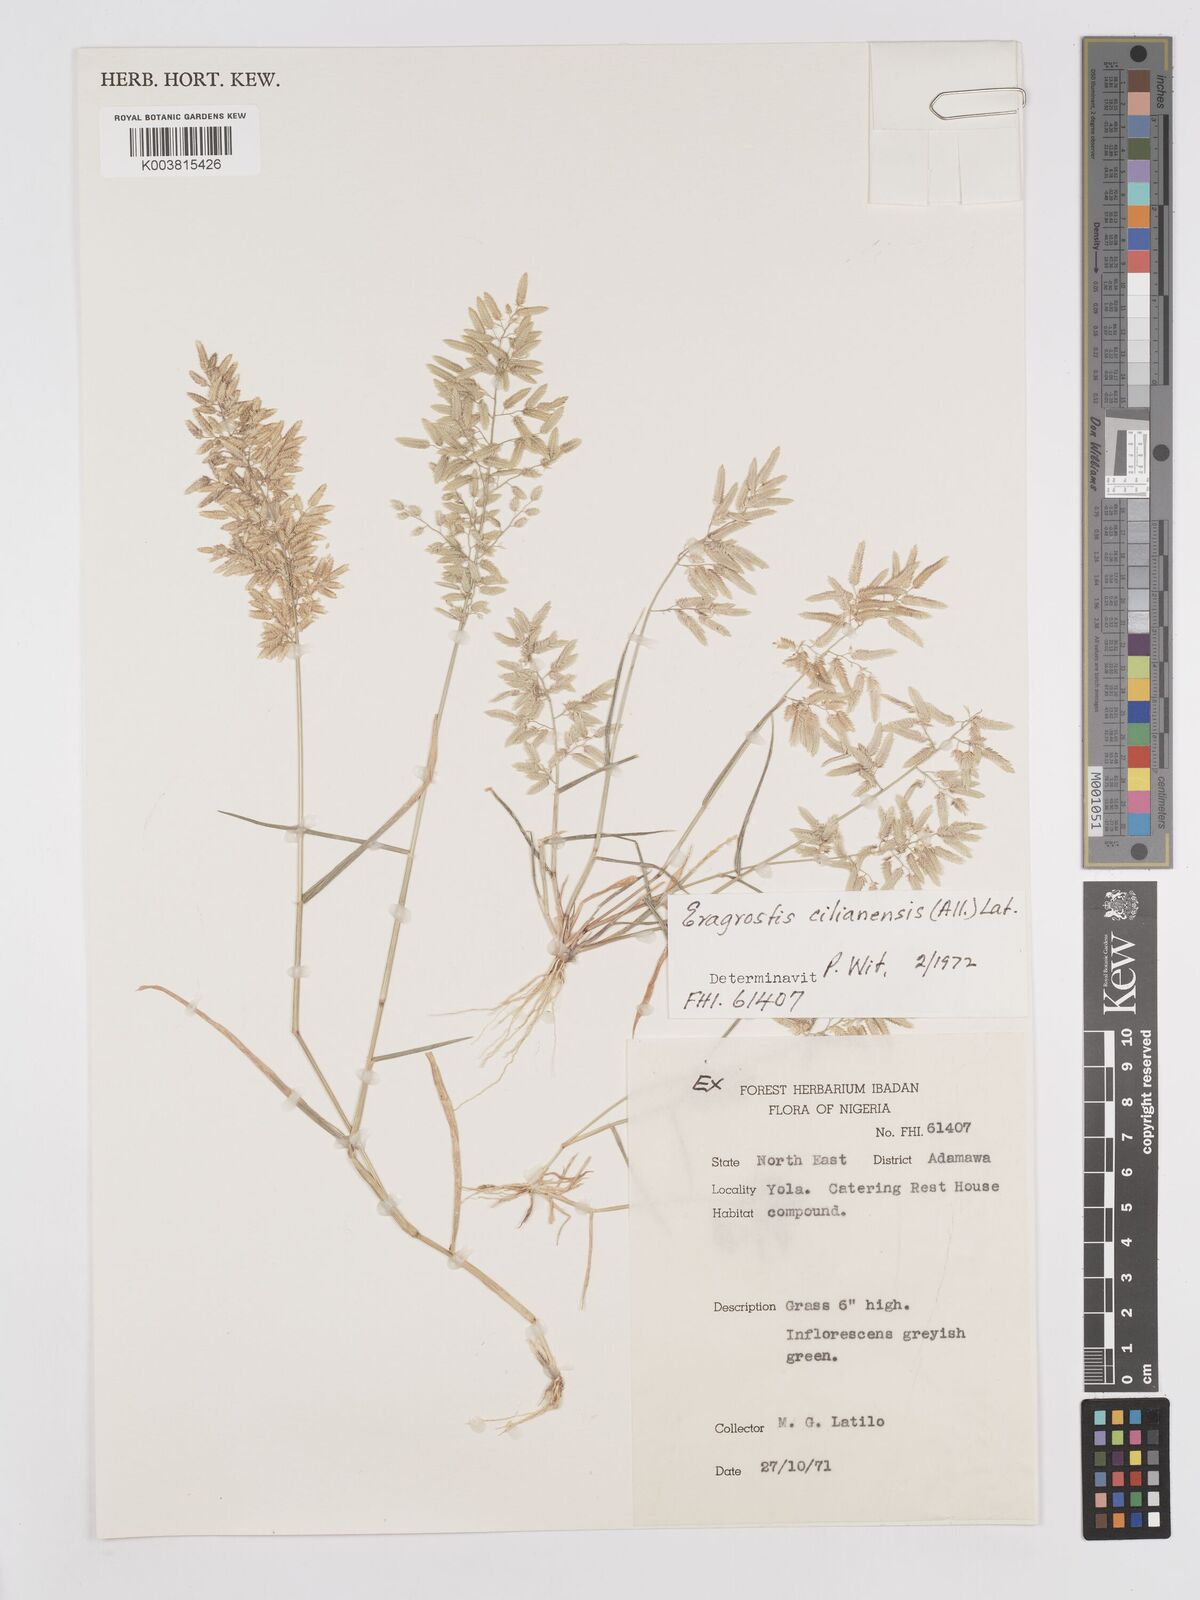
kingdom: Plantae
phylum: Tracheophyta
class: Liliopsida
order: Poales
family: Poaceae
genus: Eragrostis
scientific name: Eragrostis cilianensis
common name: Stinkgrass
